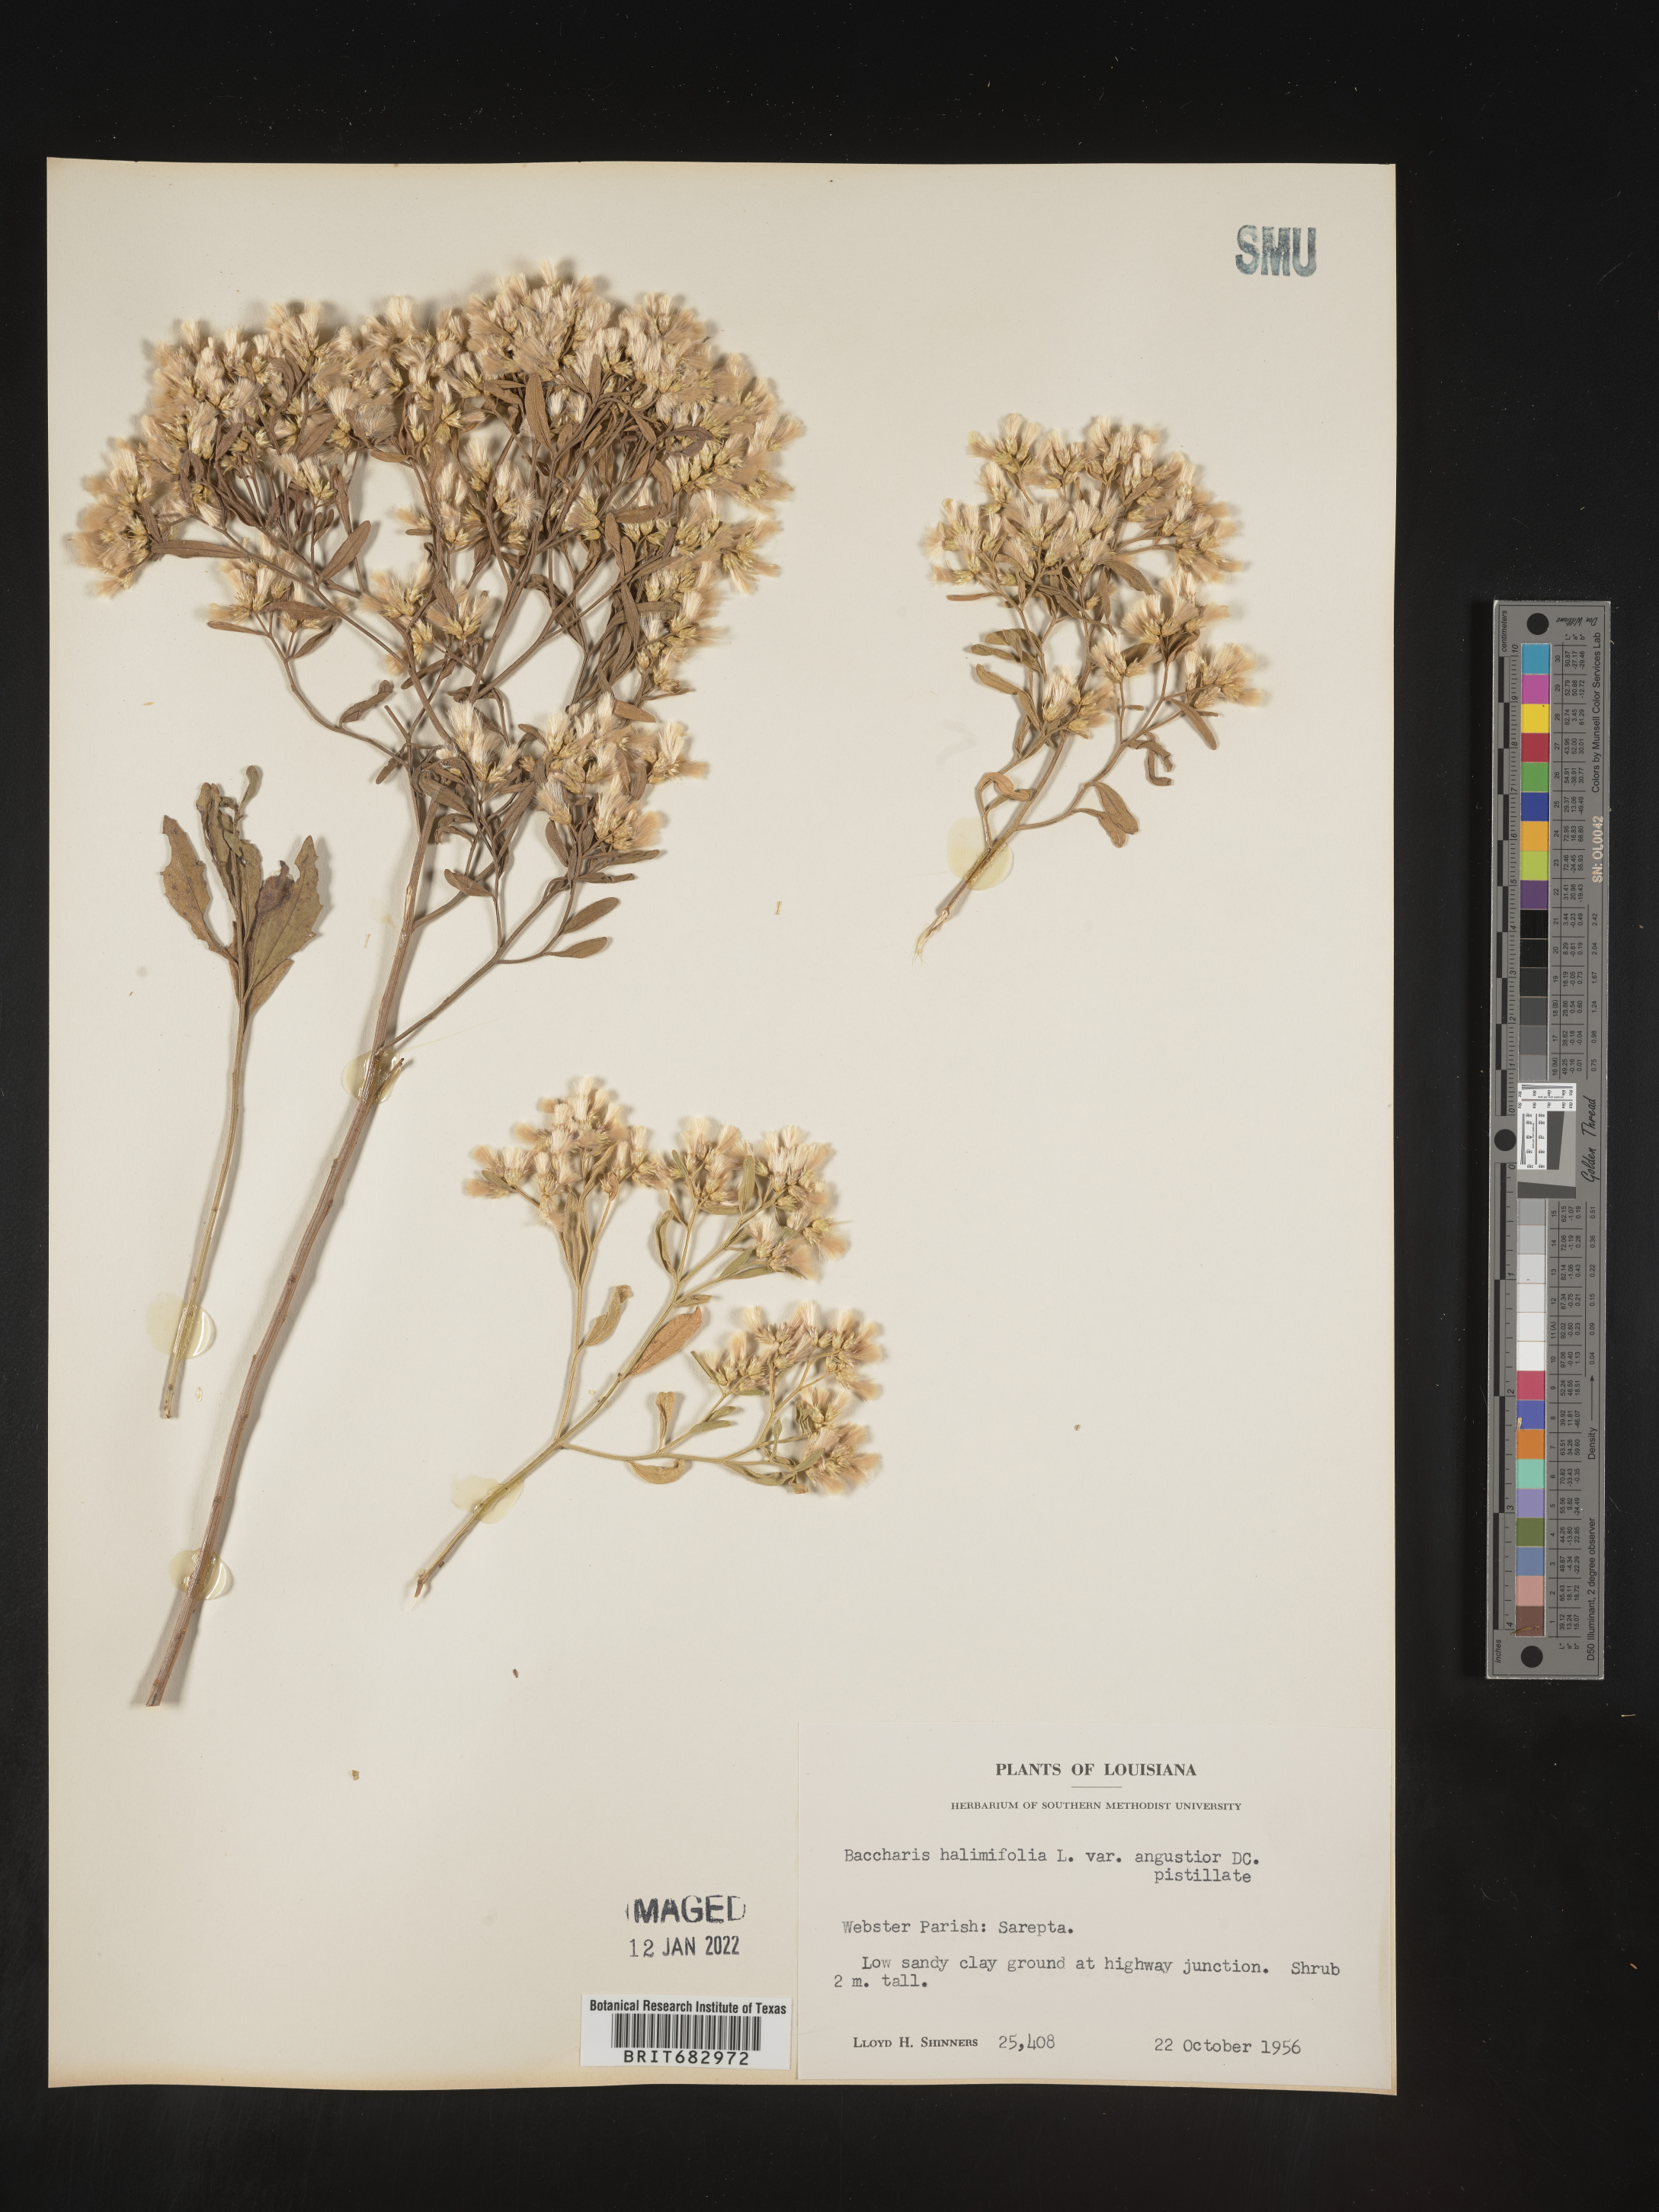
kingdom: Plantae
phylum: Tracheophyta
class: Magnoliopsida
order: Asterales
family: Asteraceae
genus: Nidorella
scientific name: Nidorella ivifolia
